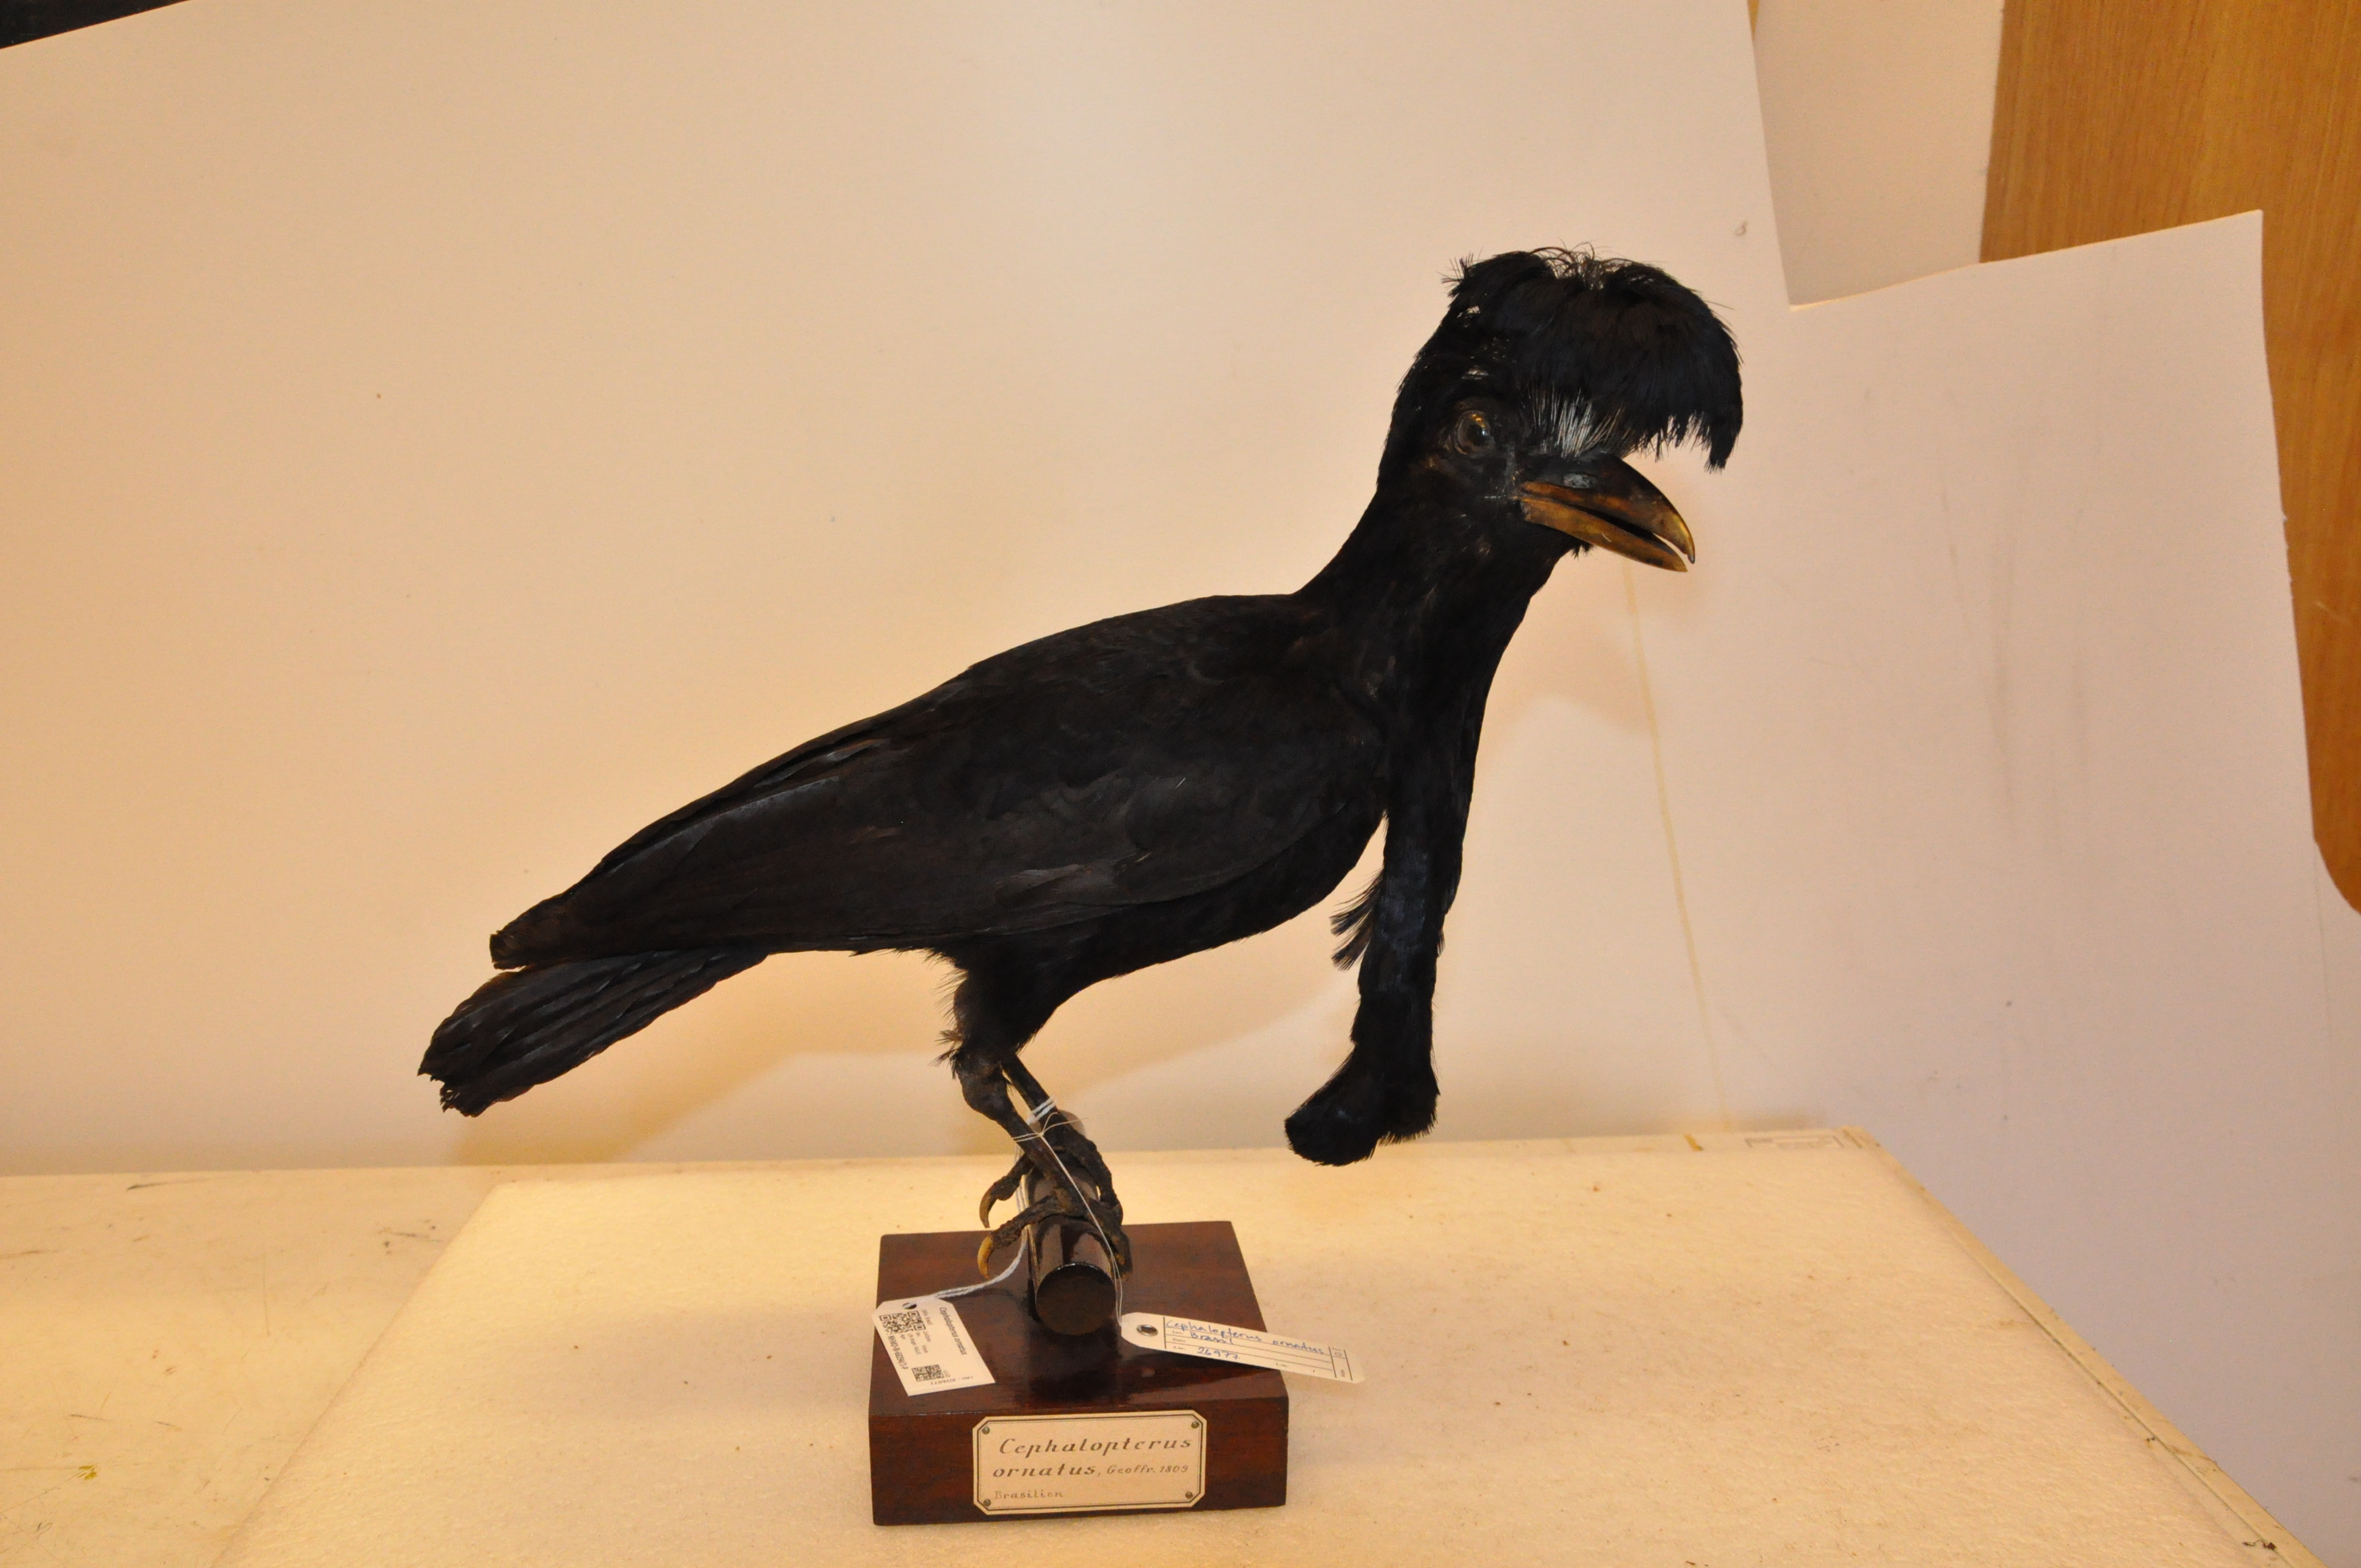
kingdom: Animalia
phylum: Chordata
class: Aves
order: Passeriformes
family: Cotingidae
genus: Cephalopterus
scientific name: Cephalopterus ornatus
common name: Amazonian umbrellabird
